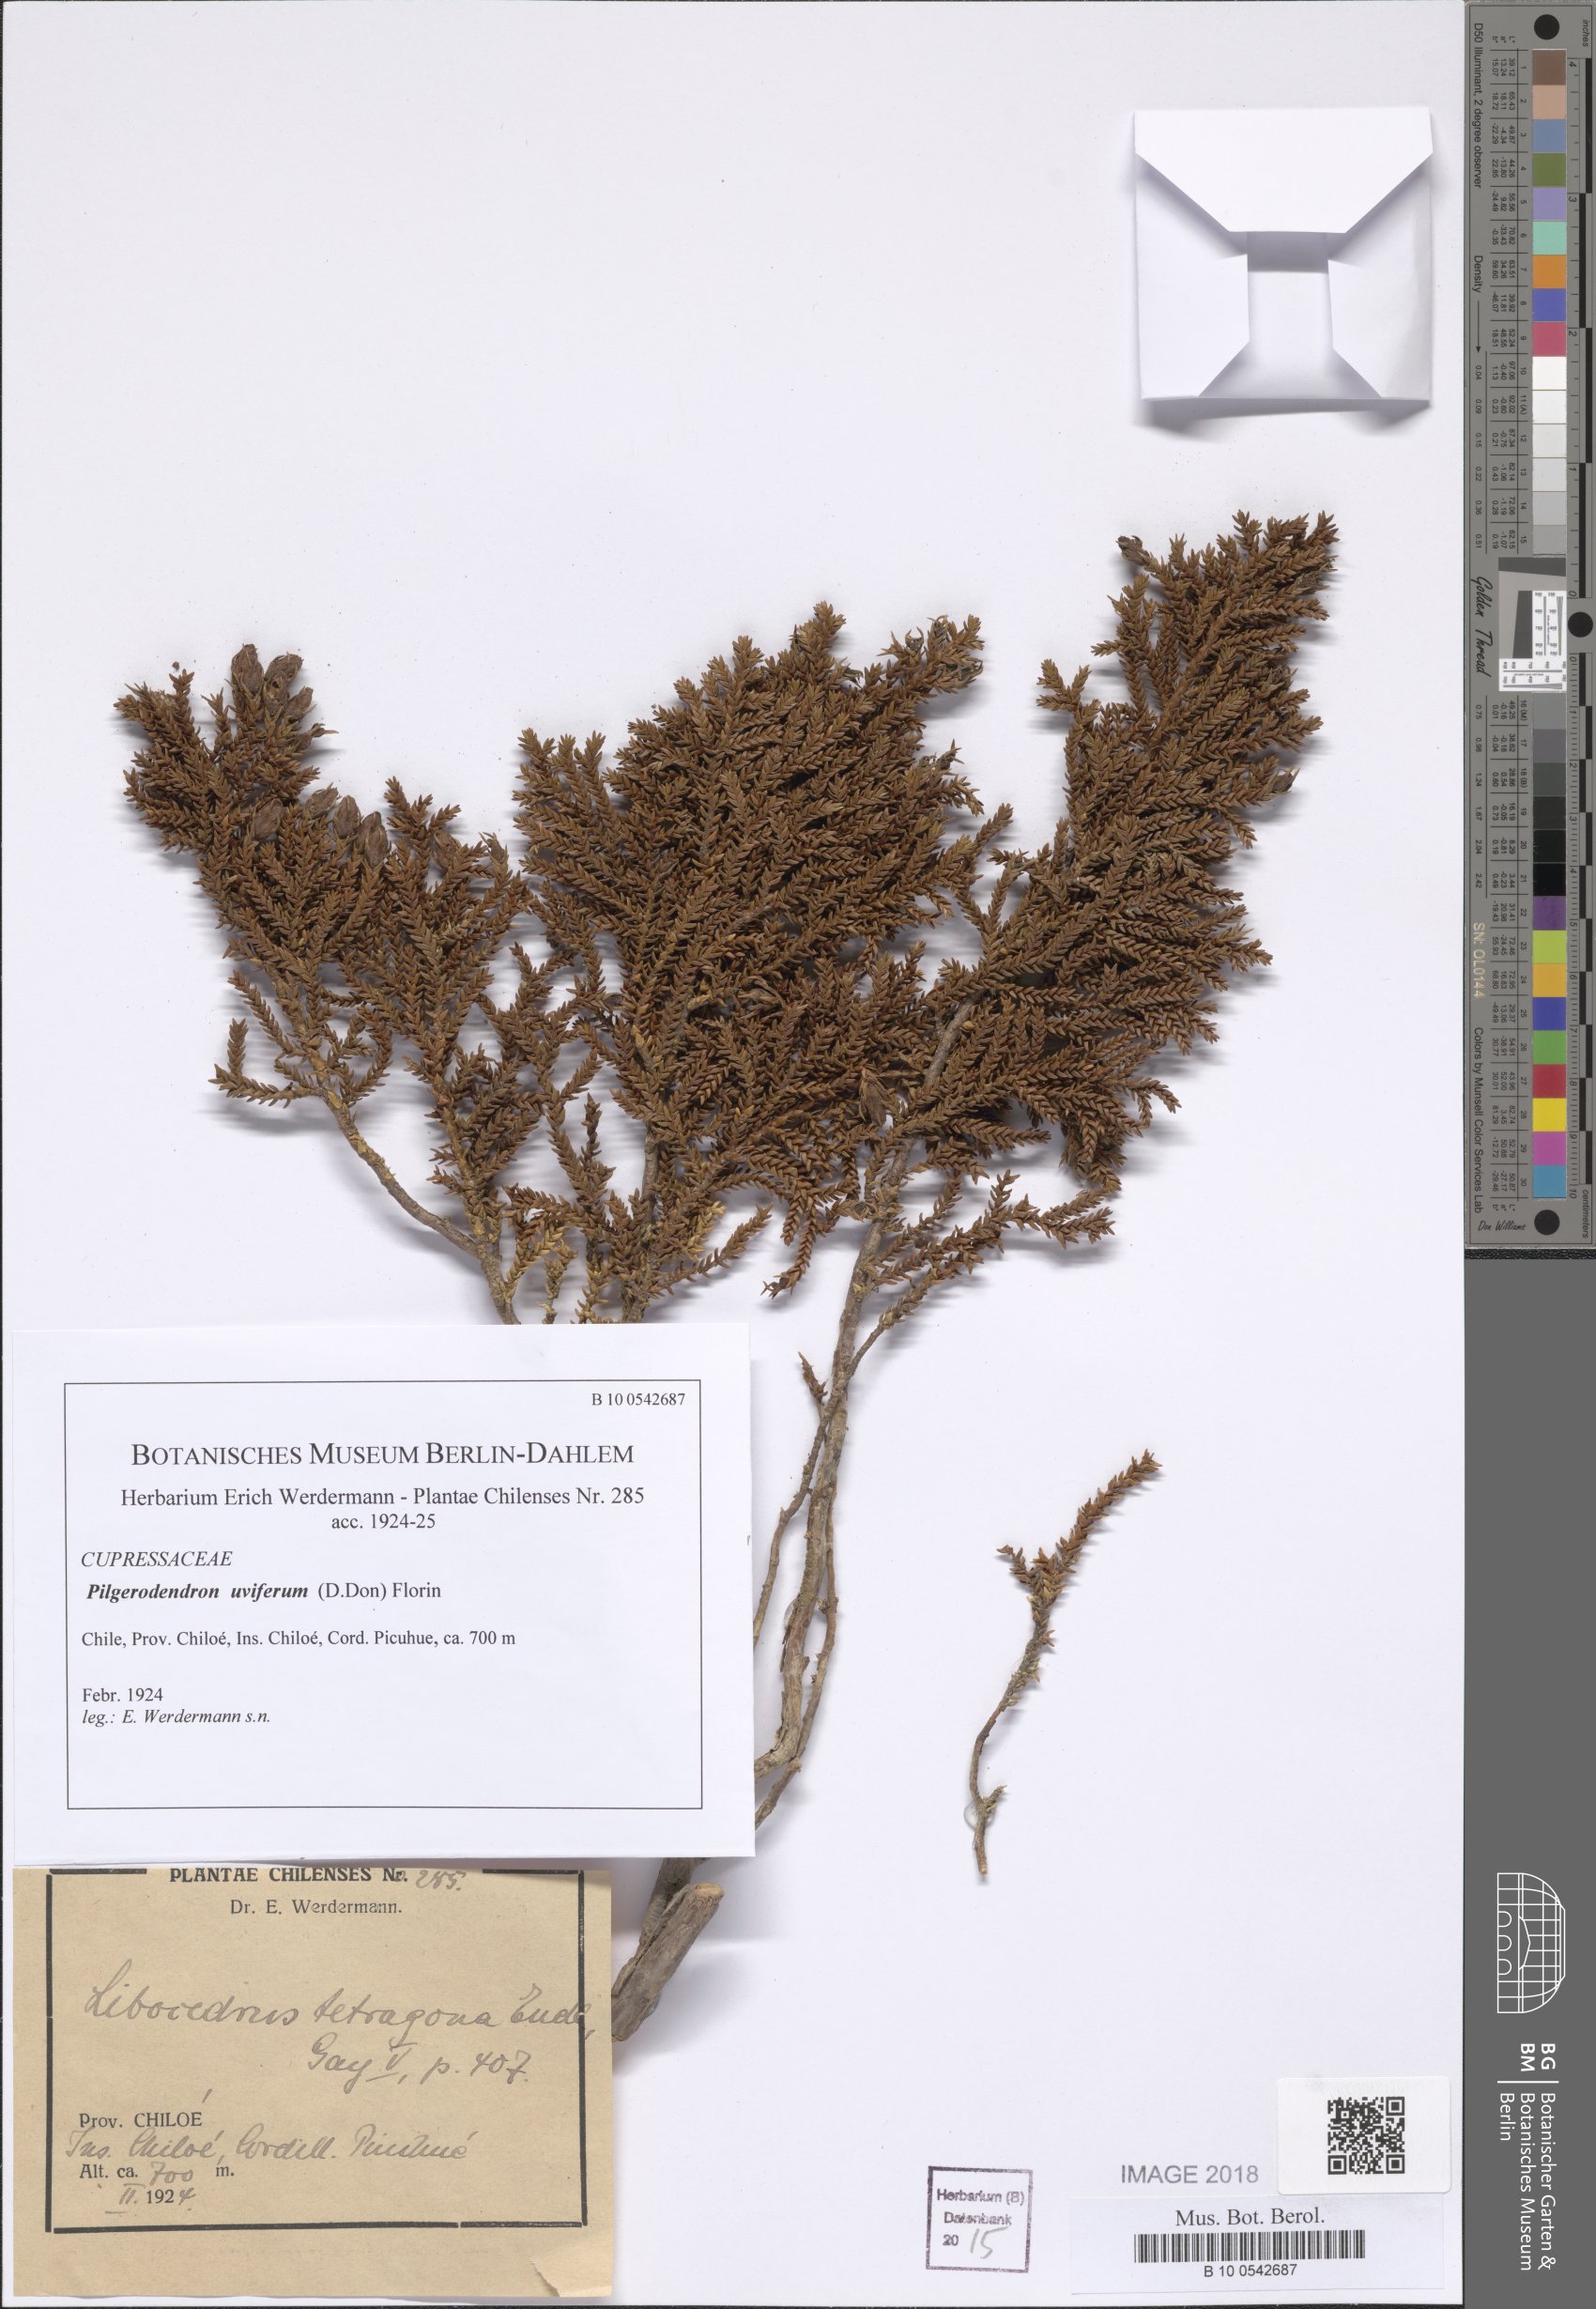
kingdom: Plantae
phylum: Tracheophyta
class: Pinopsida
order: Pinales
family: Cupressaceae
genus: Pilgerodendron
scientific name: Pilgerodendron uviferum
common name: Guaitecas cypress
